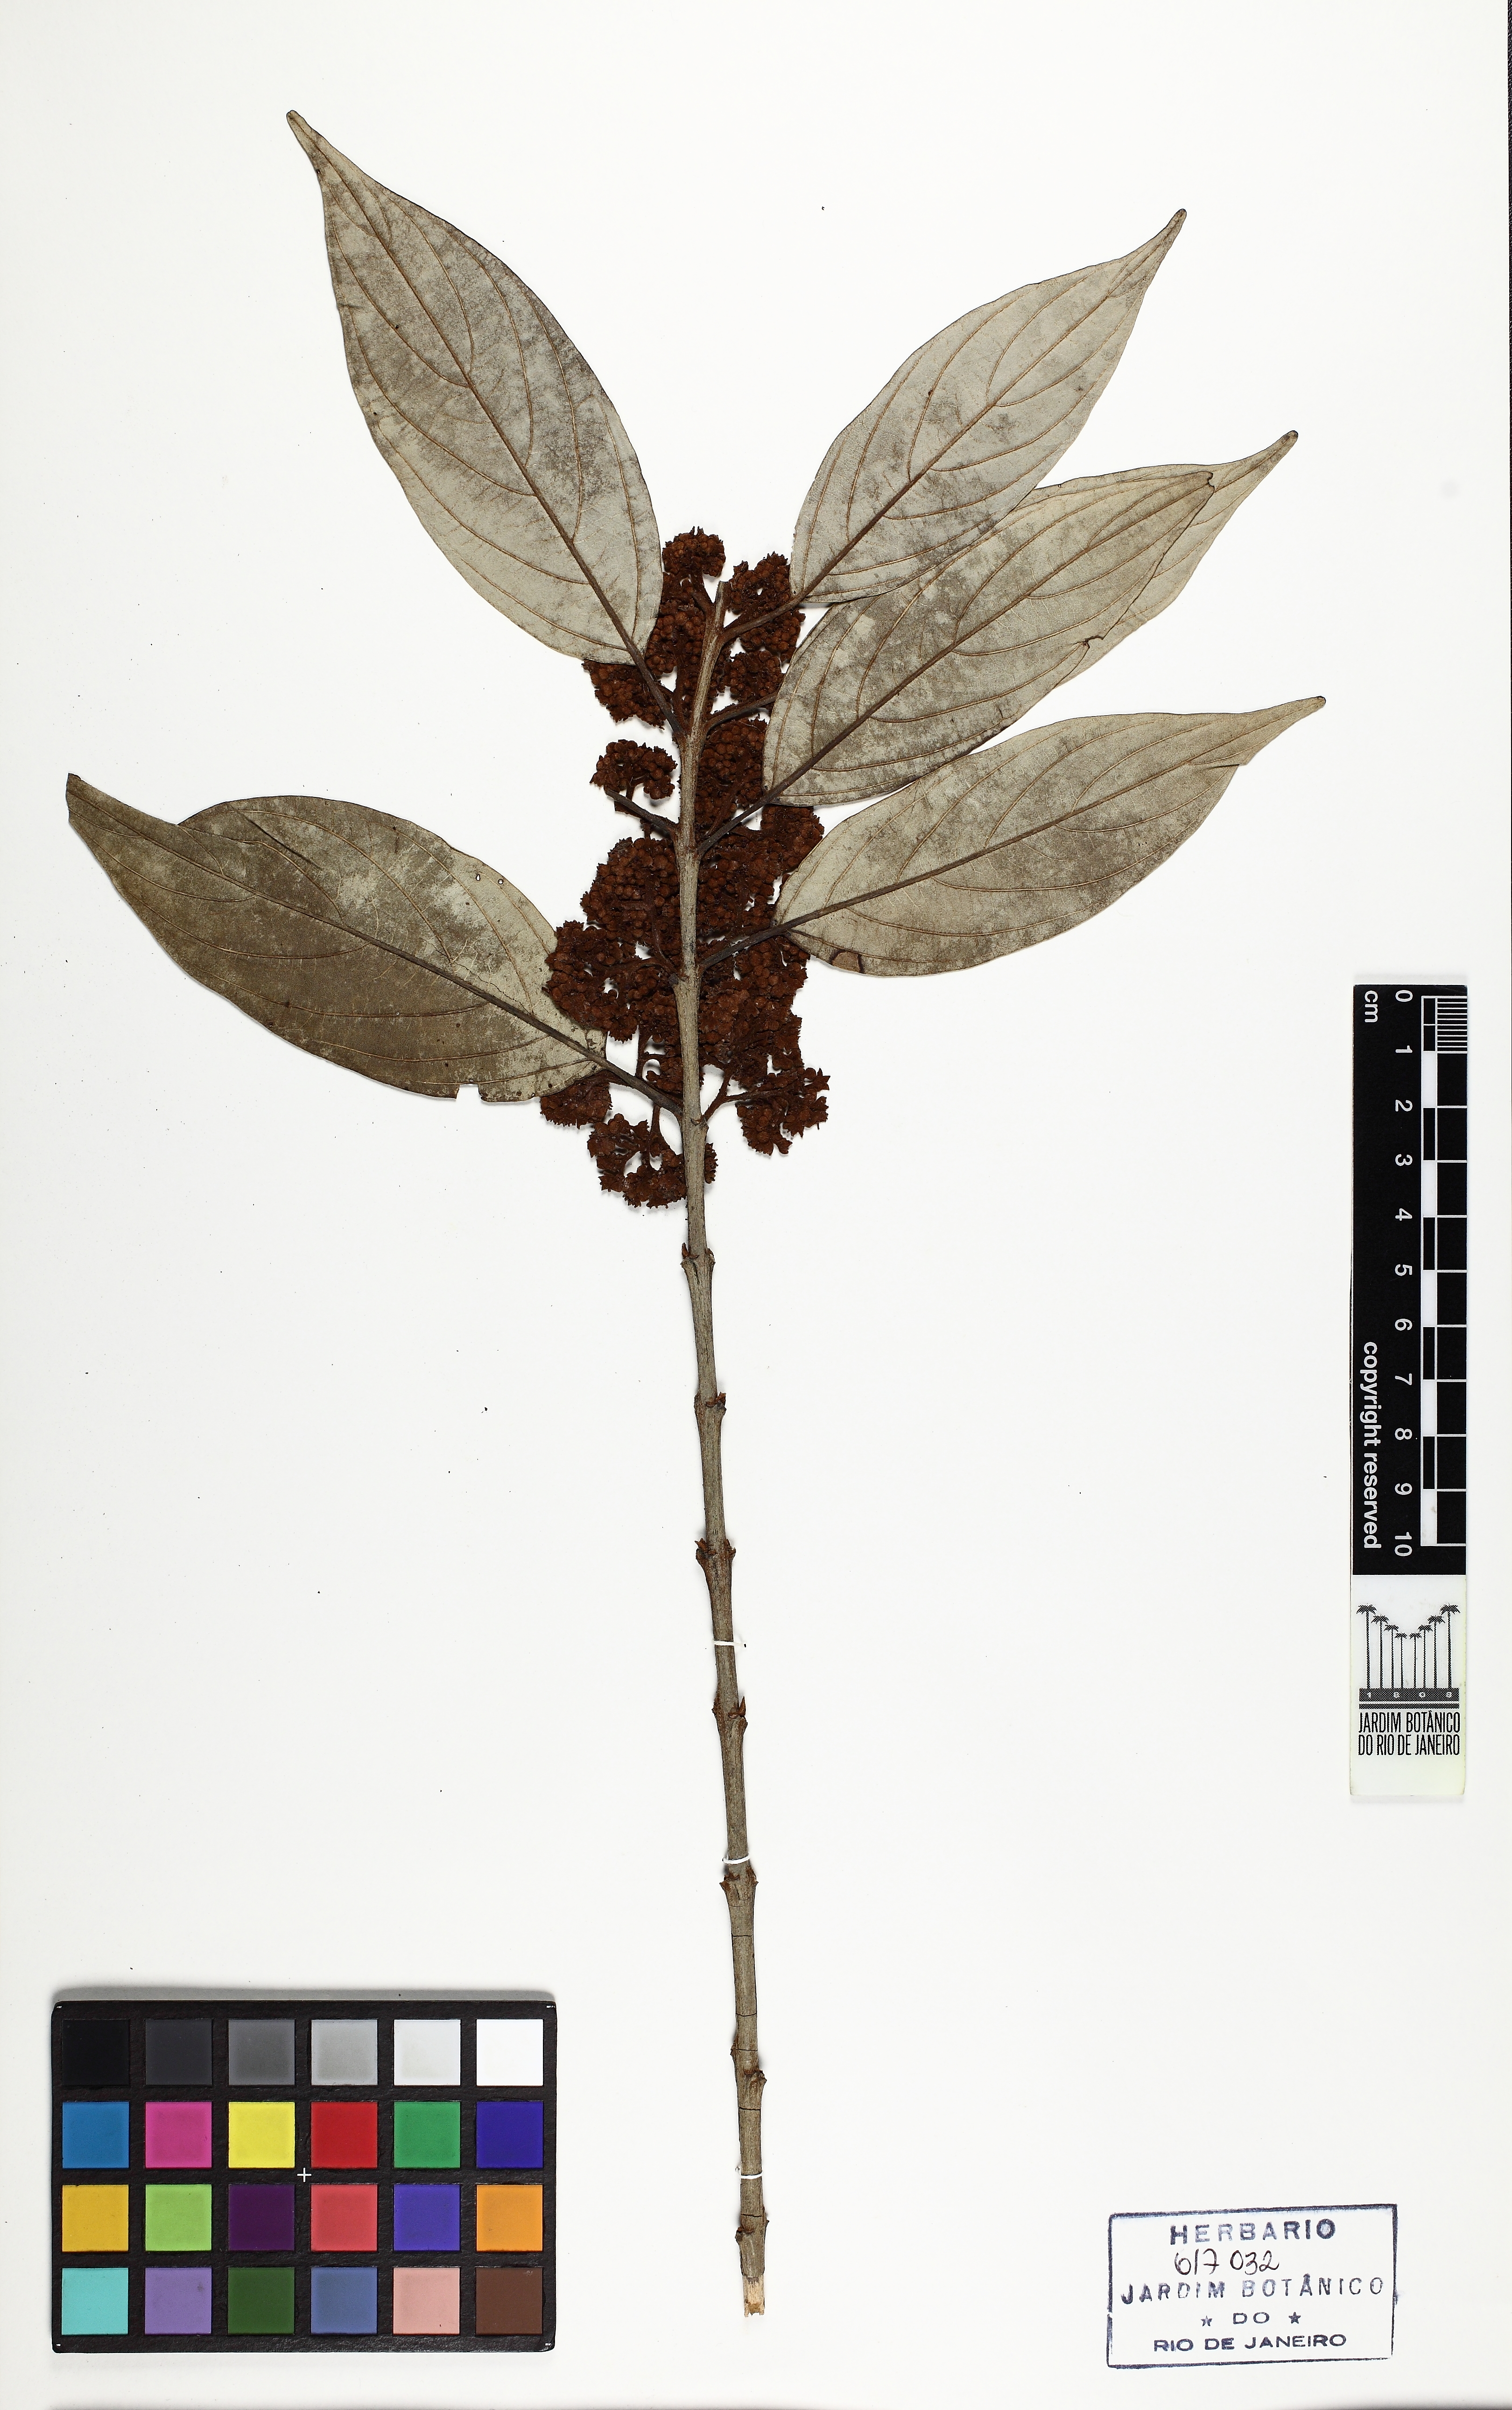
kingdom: Plantae
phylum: Tracheophyta
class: Magnoliopsida
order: Gentianales
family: Loganiaceae
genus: Strychnos
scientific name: Strychnos parvifolia
